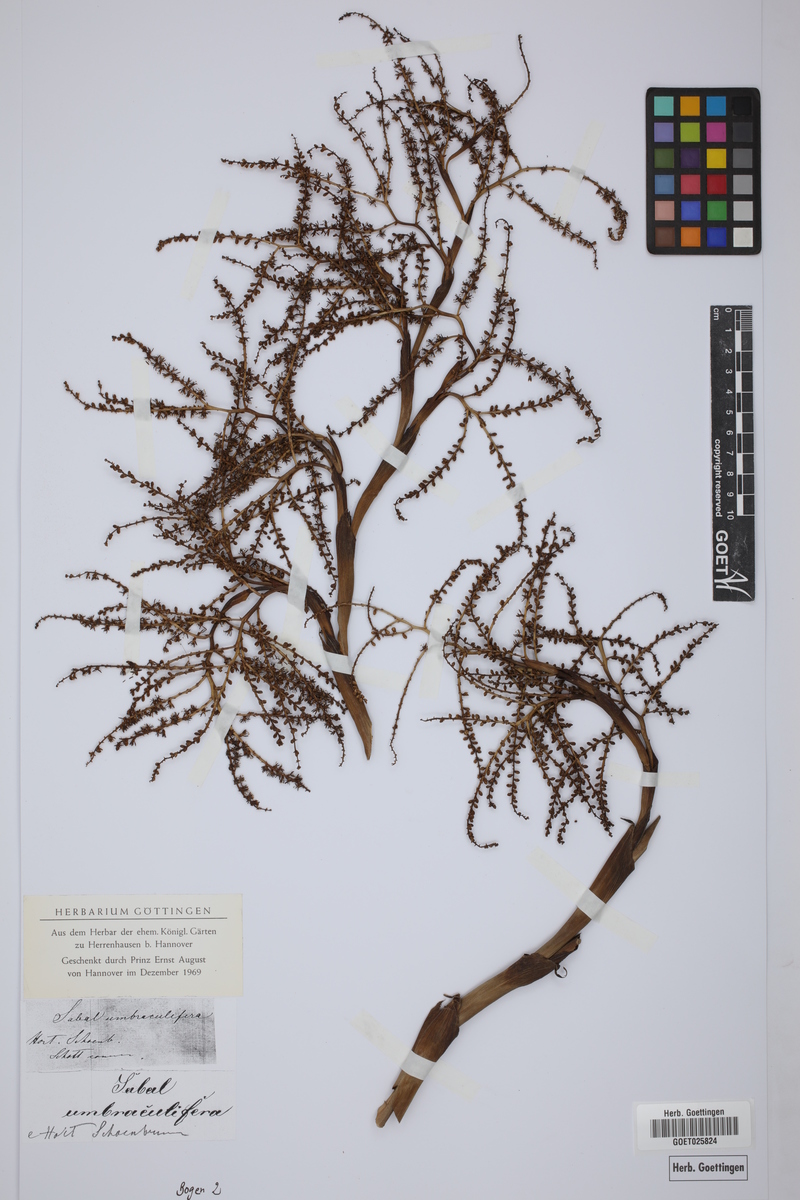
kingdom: Plantae
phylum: Tracheophyta
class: Liliopsida
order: Arecales
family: Arecaceae
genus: Sabal
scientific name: Sabal palmetto
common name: Blue palmetto
